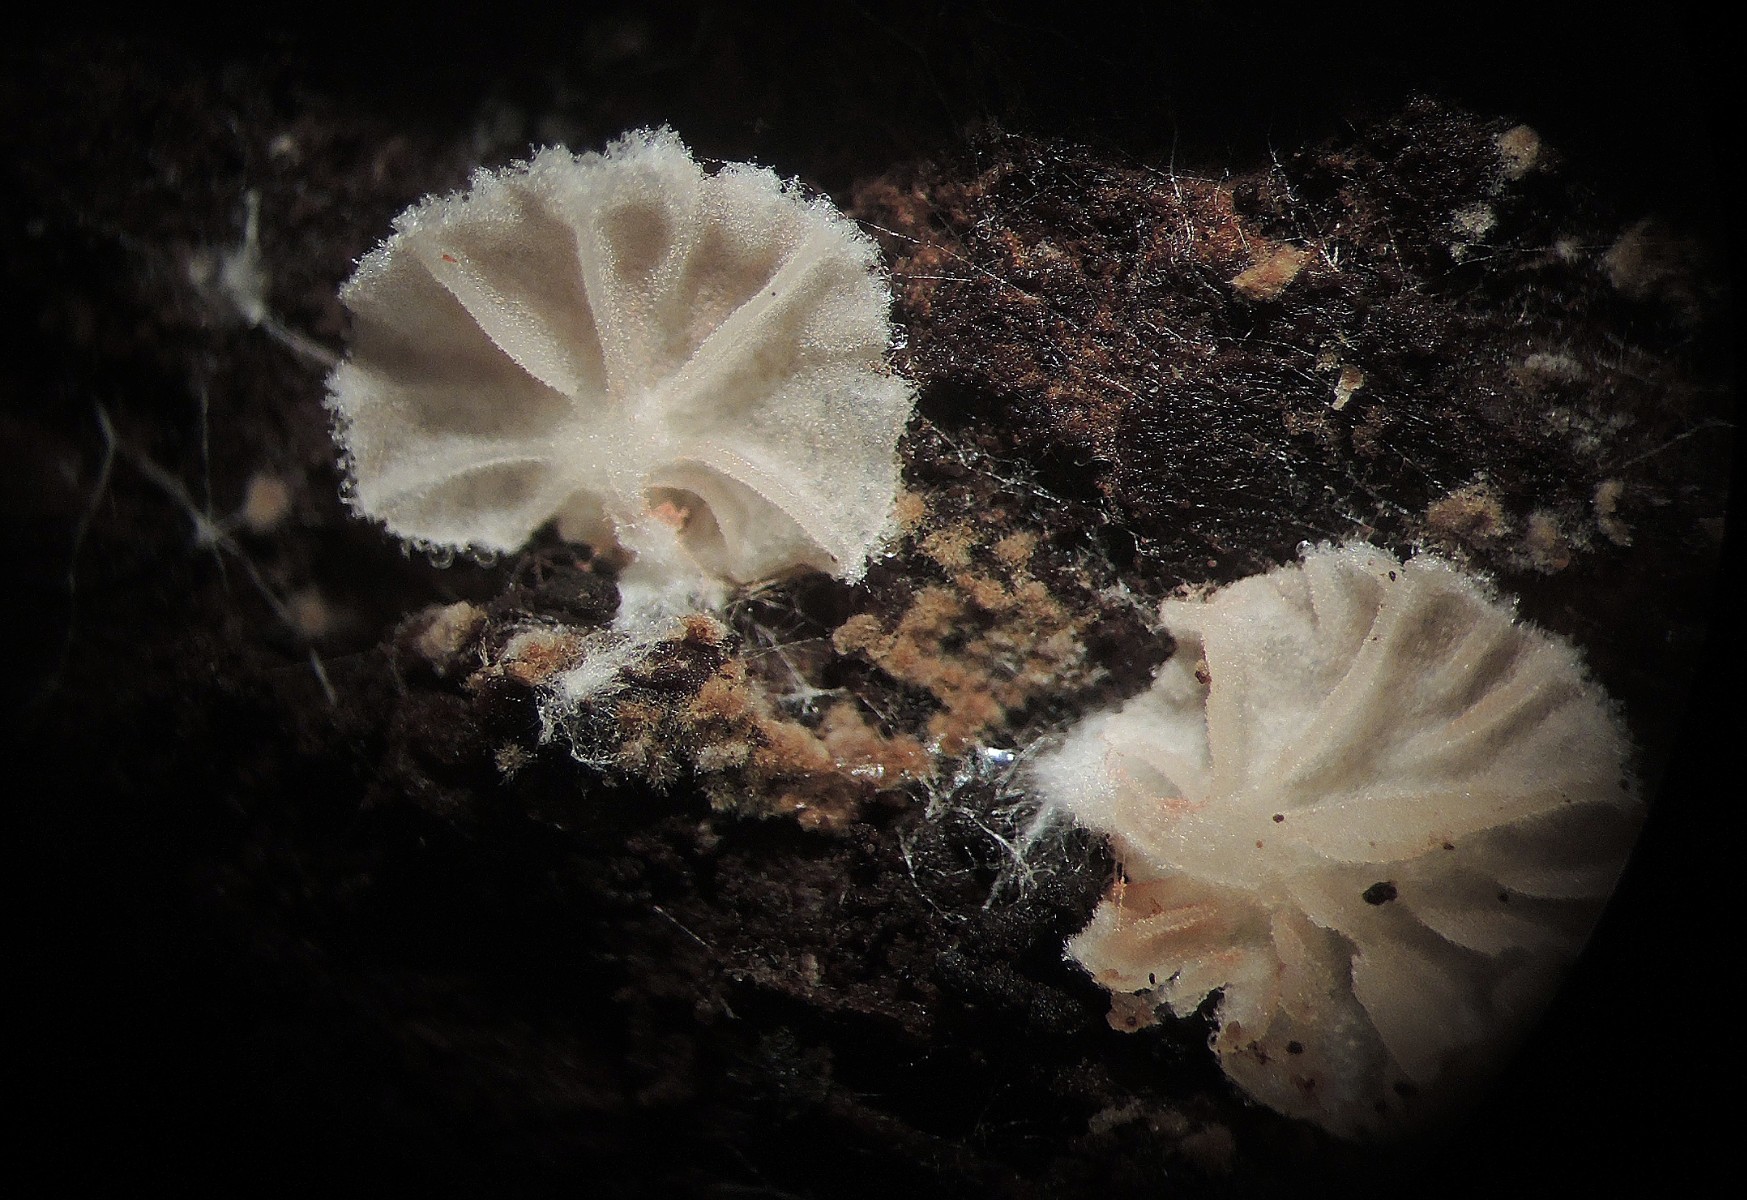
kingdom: Fungi
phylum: Basidiomycota
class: Agaricomycetes
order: Agaricales
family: Entolomataceae
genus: Entoloma
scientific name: Entoloma jahnii
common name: muslinge-rødblad
